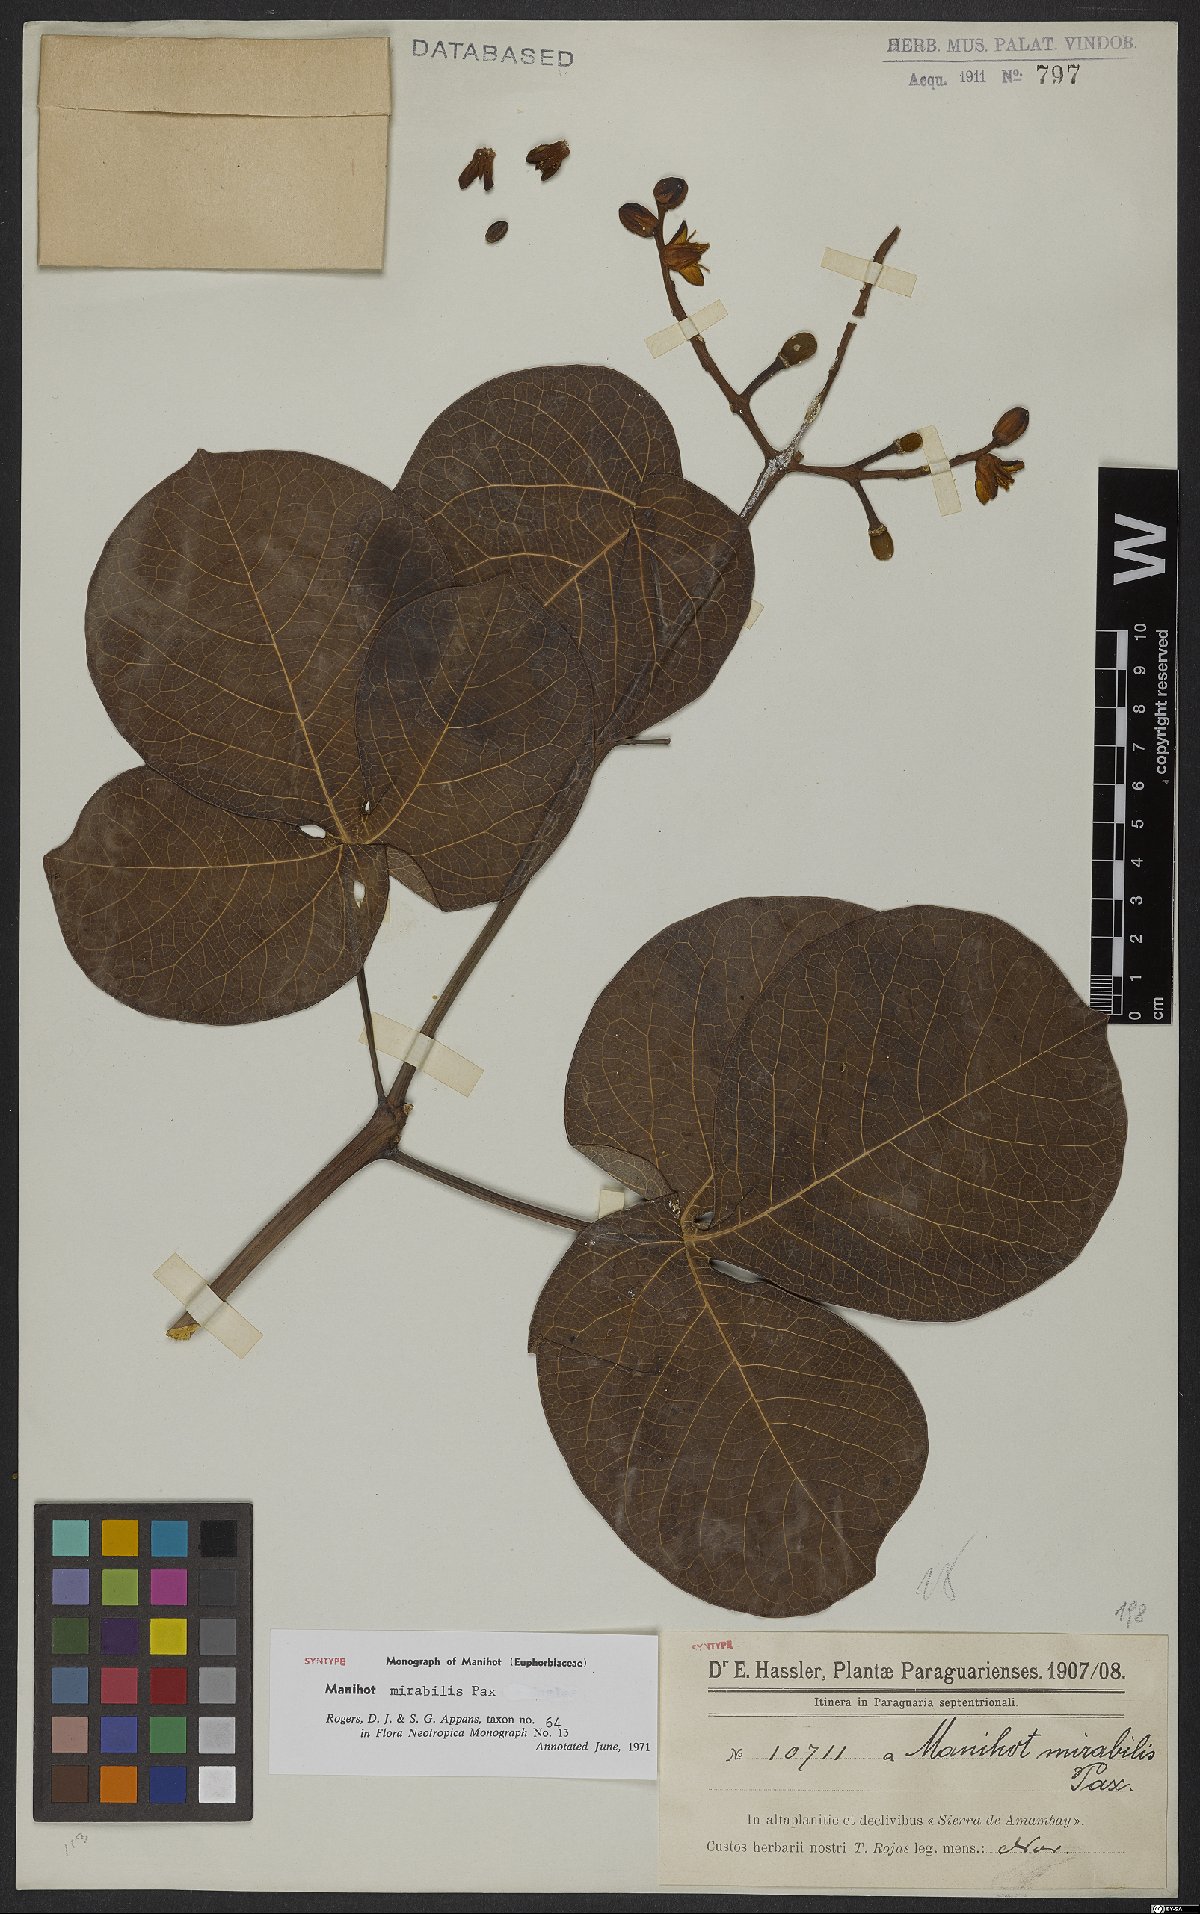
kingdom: Plantae
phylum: Tracheophyta
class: Magnoliopsida
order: Malpighiales
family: Euphorbiaceae
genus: Manihot
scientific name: Manihot mirabilis
